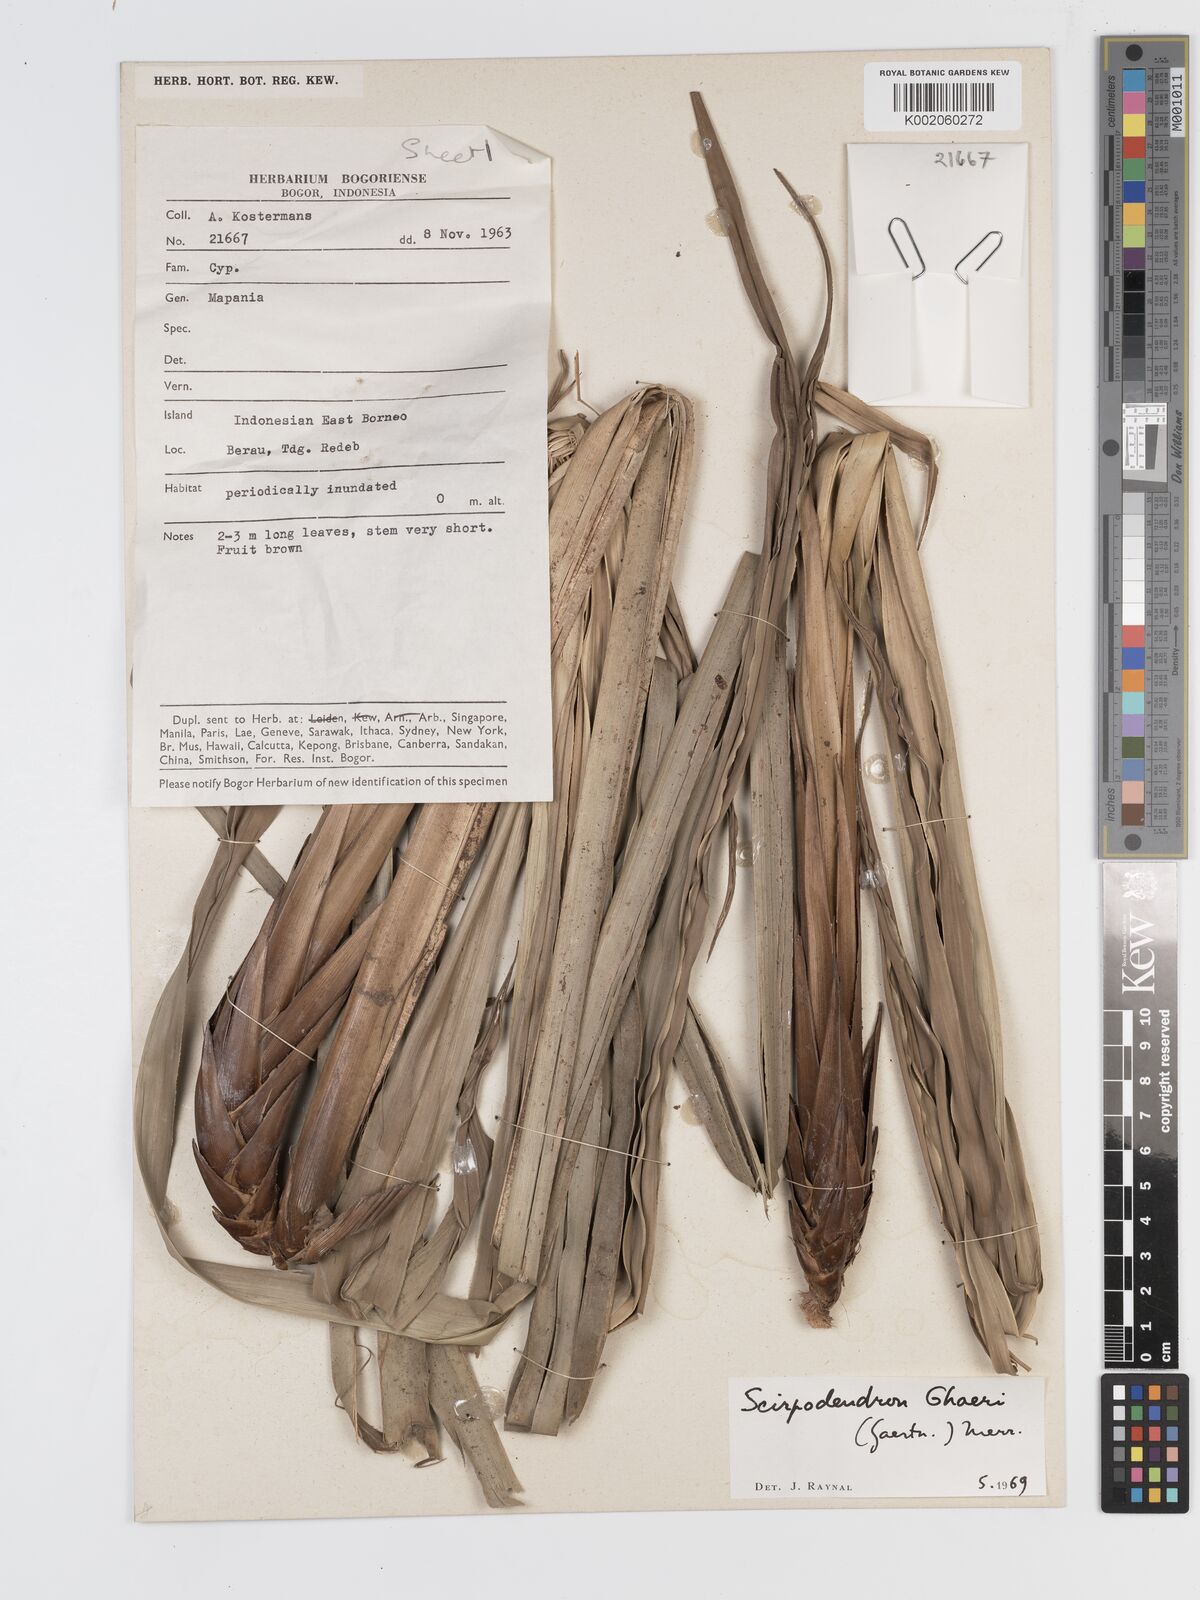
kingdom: Plantae
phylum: Tracheophyta
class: Liliopsida
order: Poales
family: Cyperaceae
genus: Scirpodendron
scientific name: Scirpodendron
